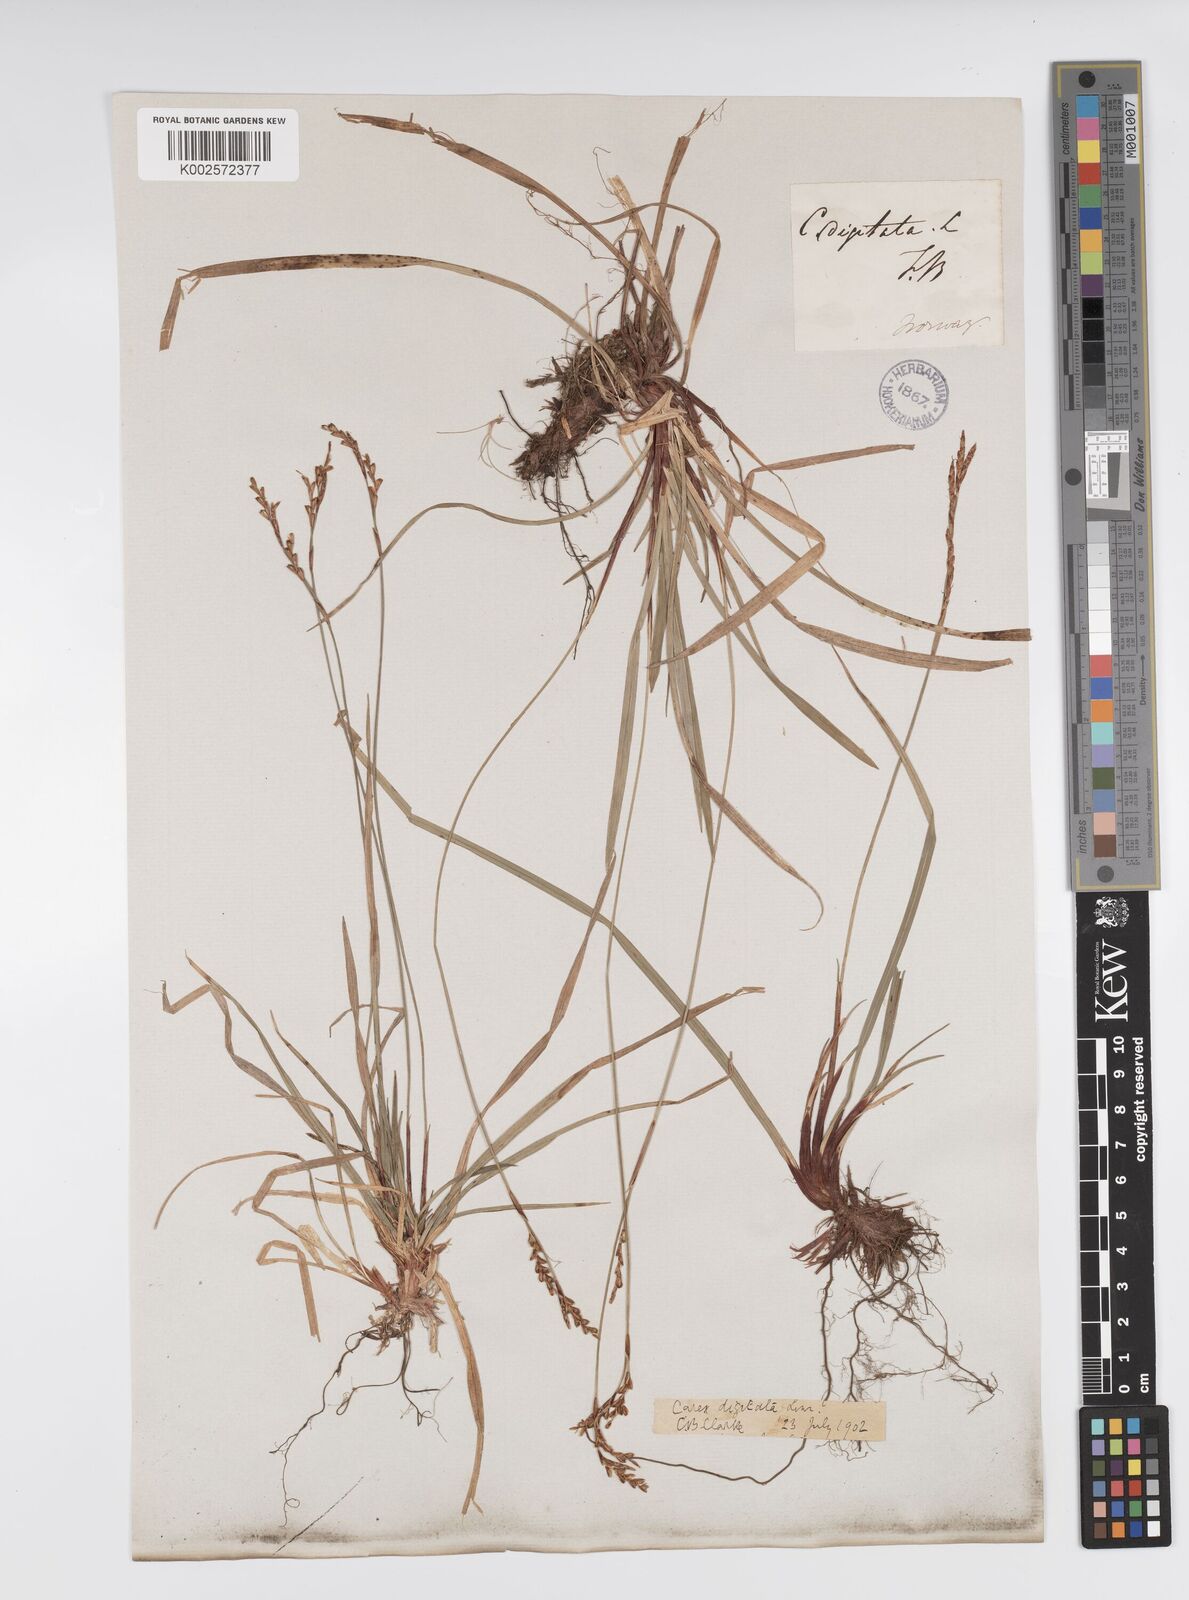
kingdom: Plantae
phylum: Tracheophyta
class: Liliopsida
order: Poales
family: Cyperaceae
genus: Carex
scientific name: Carex digitata
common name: Fingered sedge
